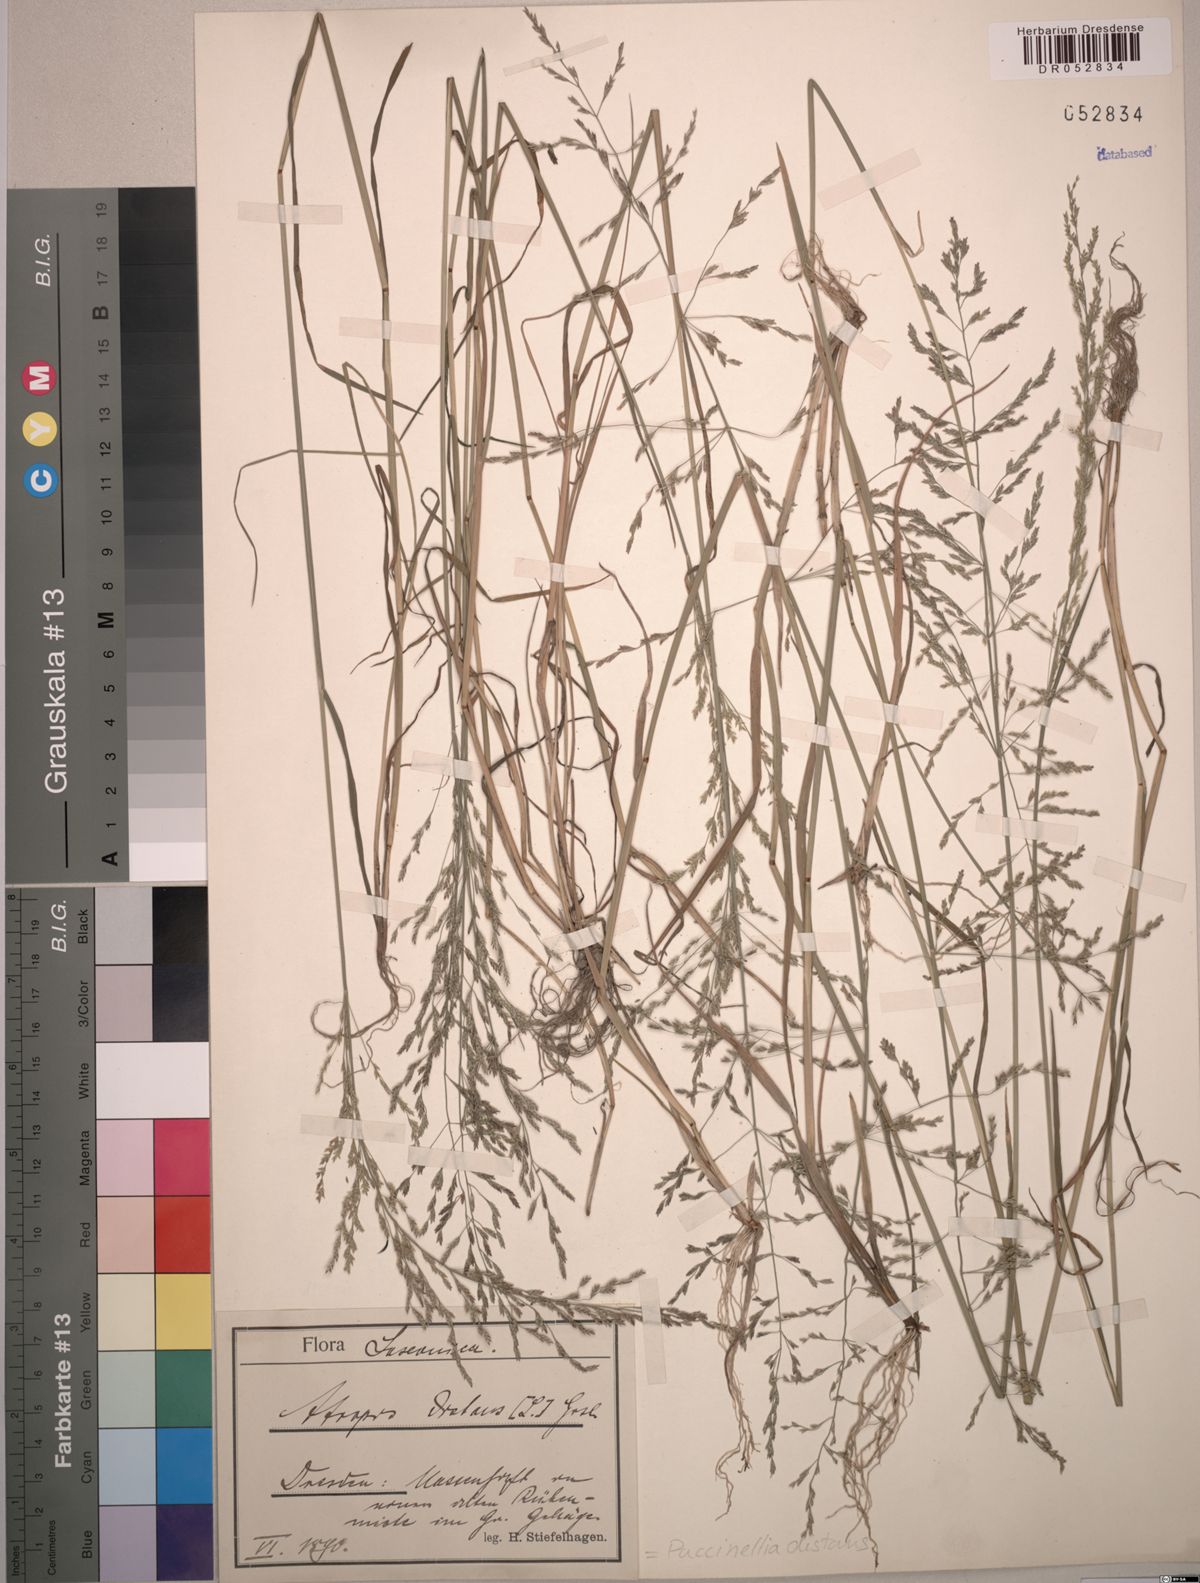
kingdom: Plantae
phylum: Tracheophyta
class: Liliopsida
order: Poales
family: Poaceae
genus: Puccinellia
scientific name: Puccinellia distans
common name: Weeping alkaligrass
